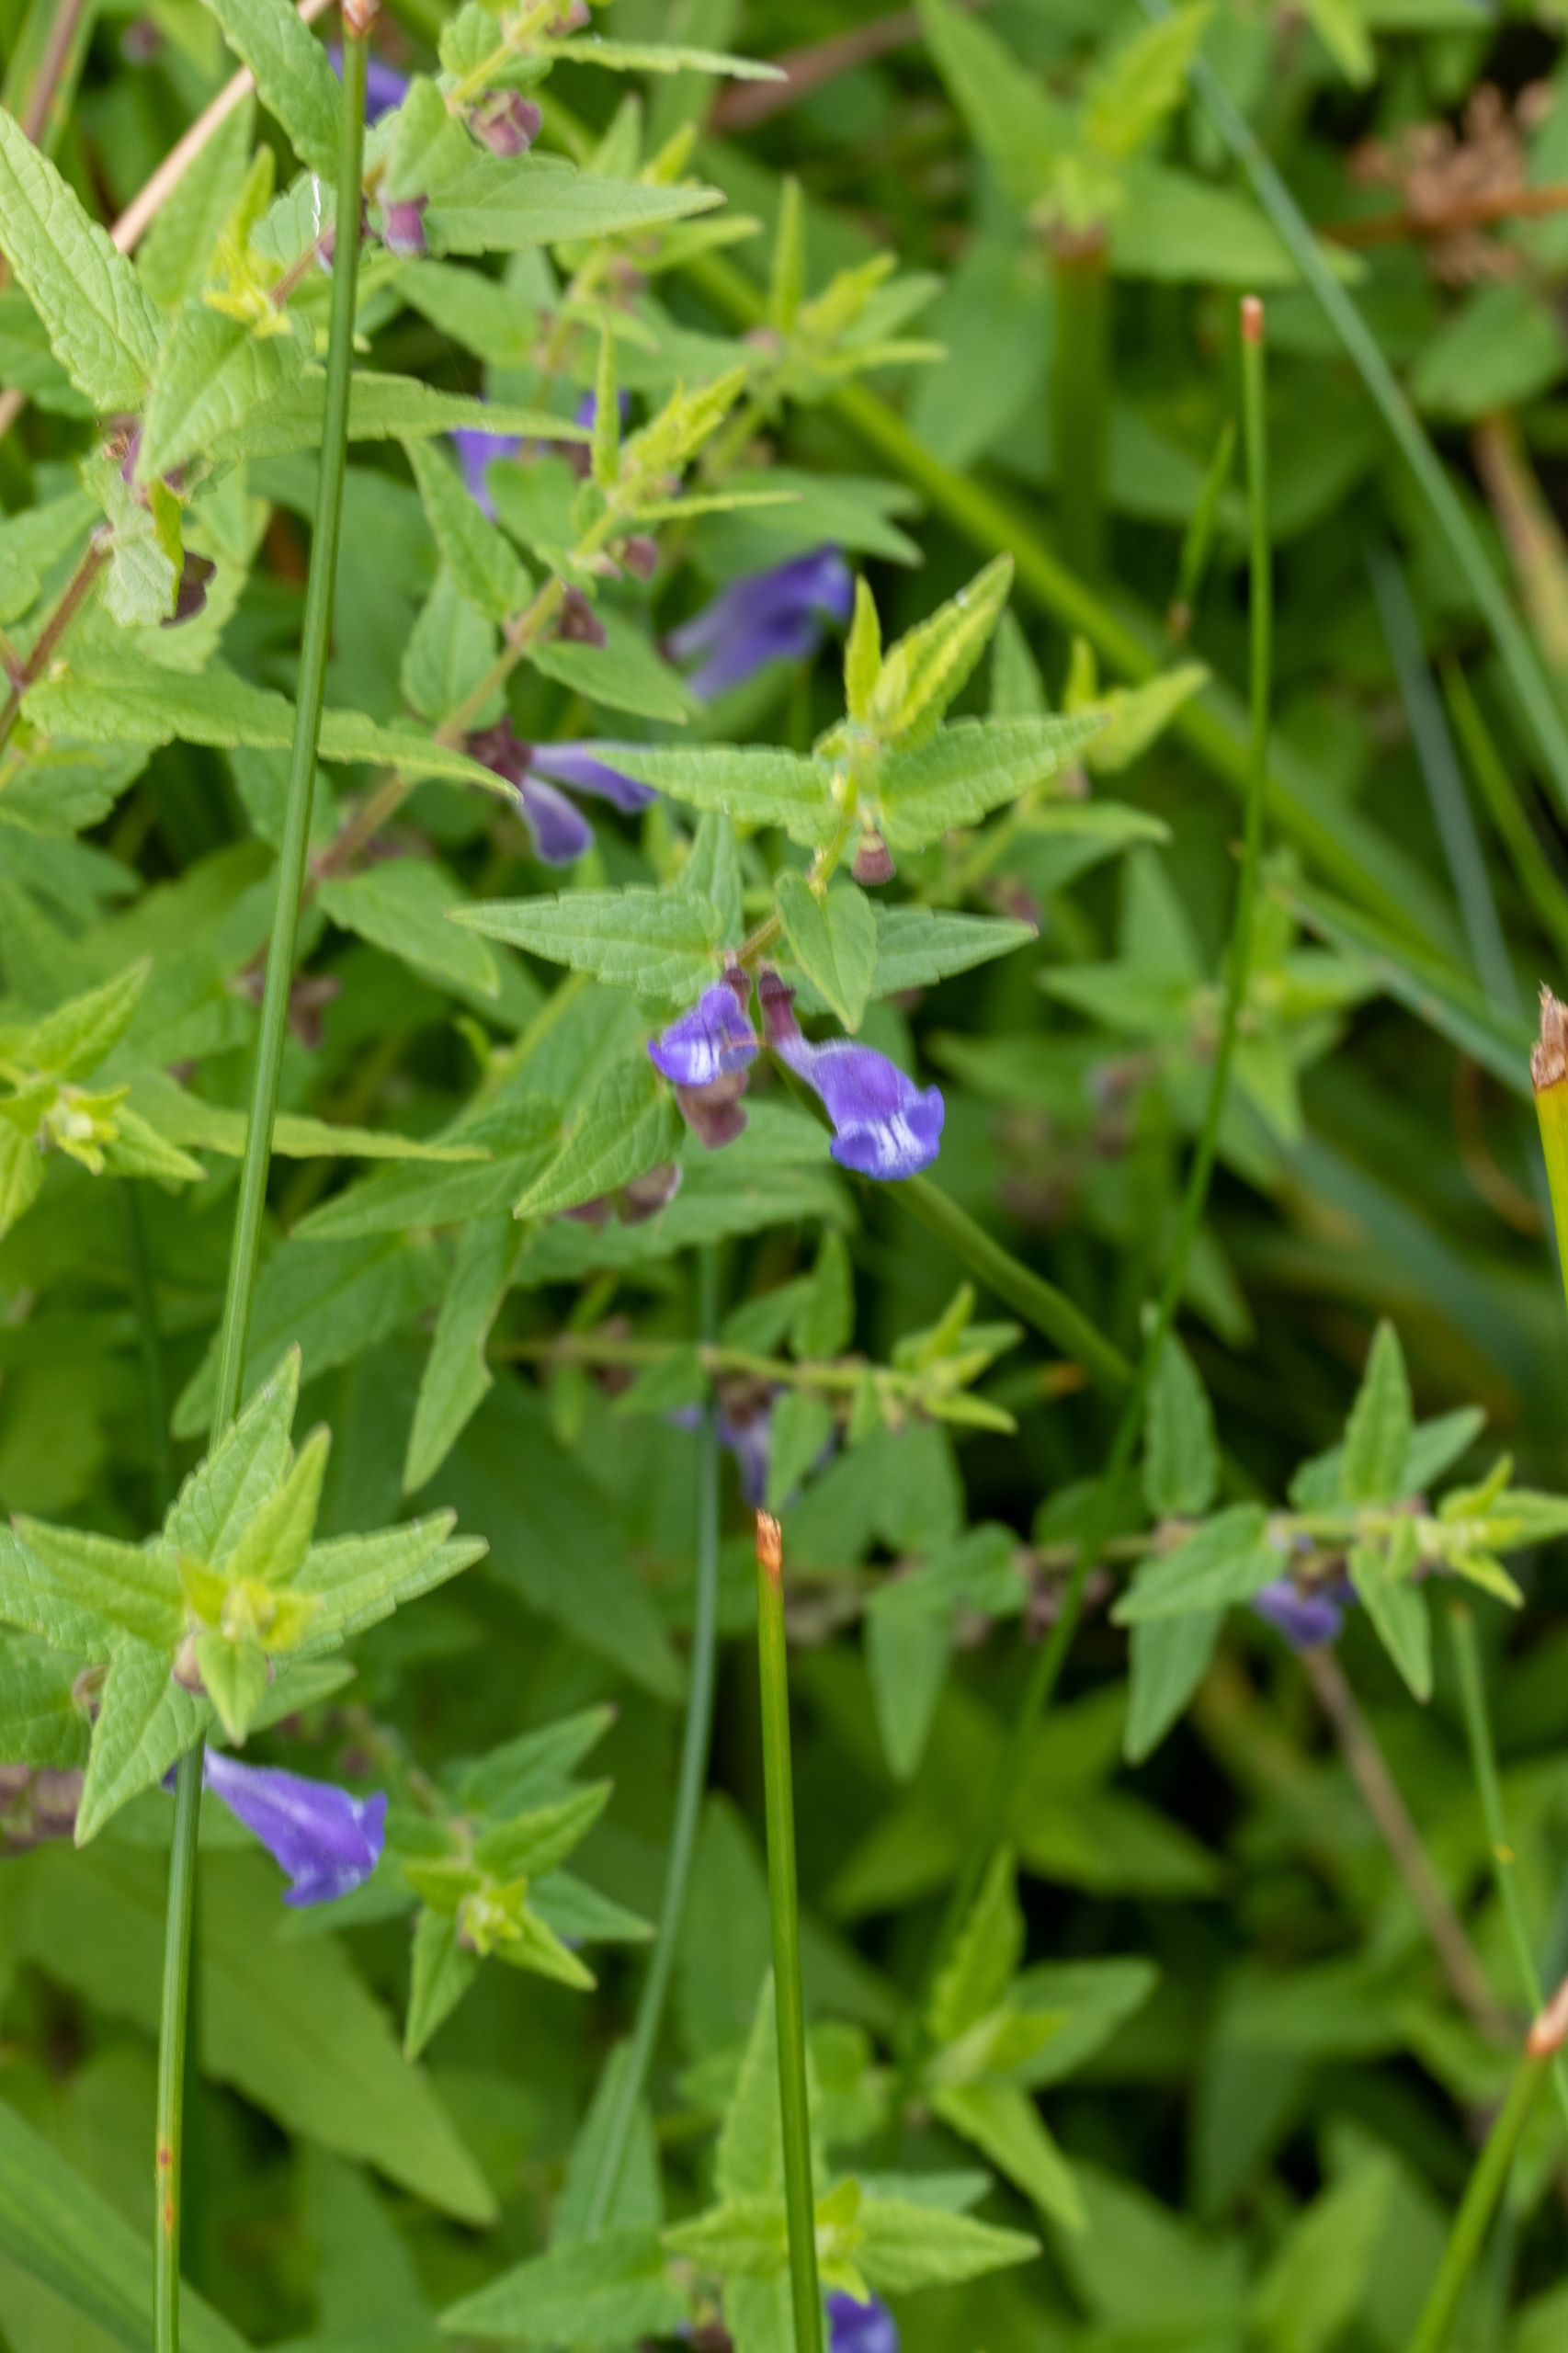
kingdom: Plantae
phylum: Tracheophyta
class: Magnoliopsida
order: Lamiales
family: Lamiaceae
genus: Scutellaria
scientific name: Scutellaria galericulata
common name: Almindelig skjolddrager
